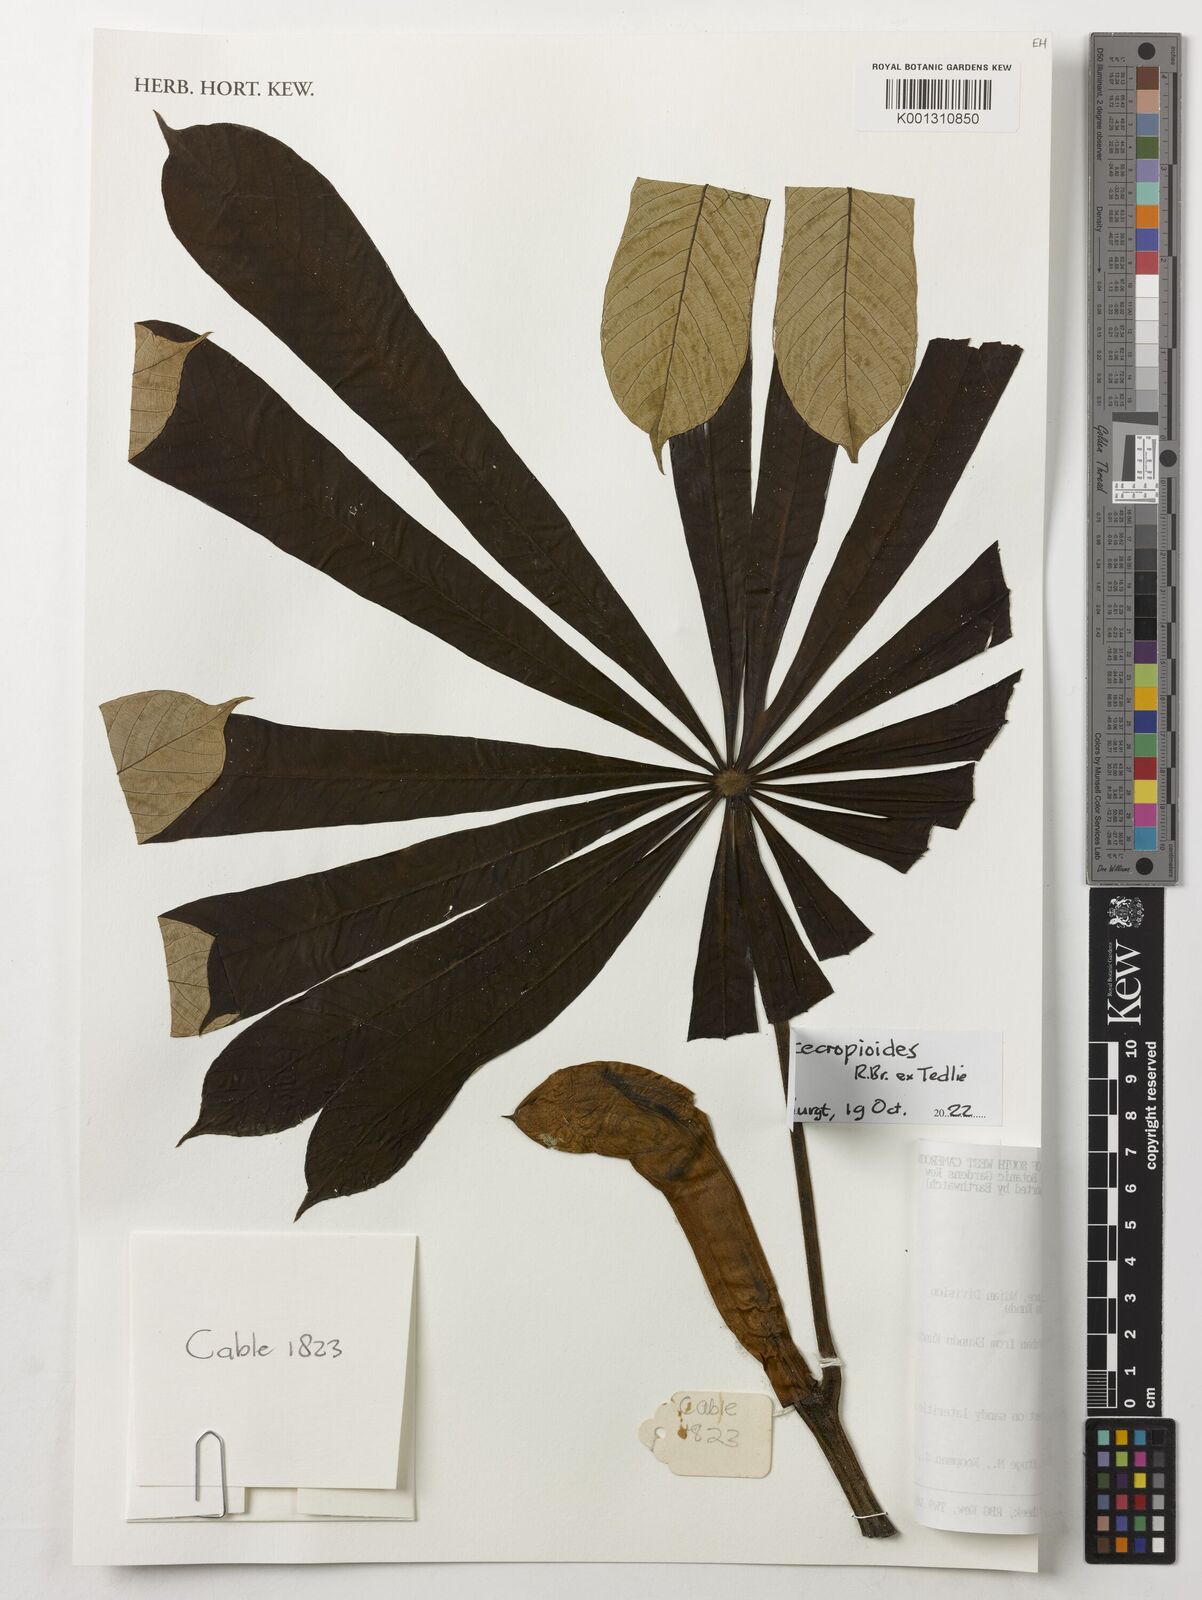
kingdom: Plantae
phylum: Tracheophyta
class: Magnoliopsida
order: Rosales
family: Urticaceae
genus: Musanga
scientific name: Musanga cecropioides
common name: African corkwood
